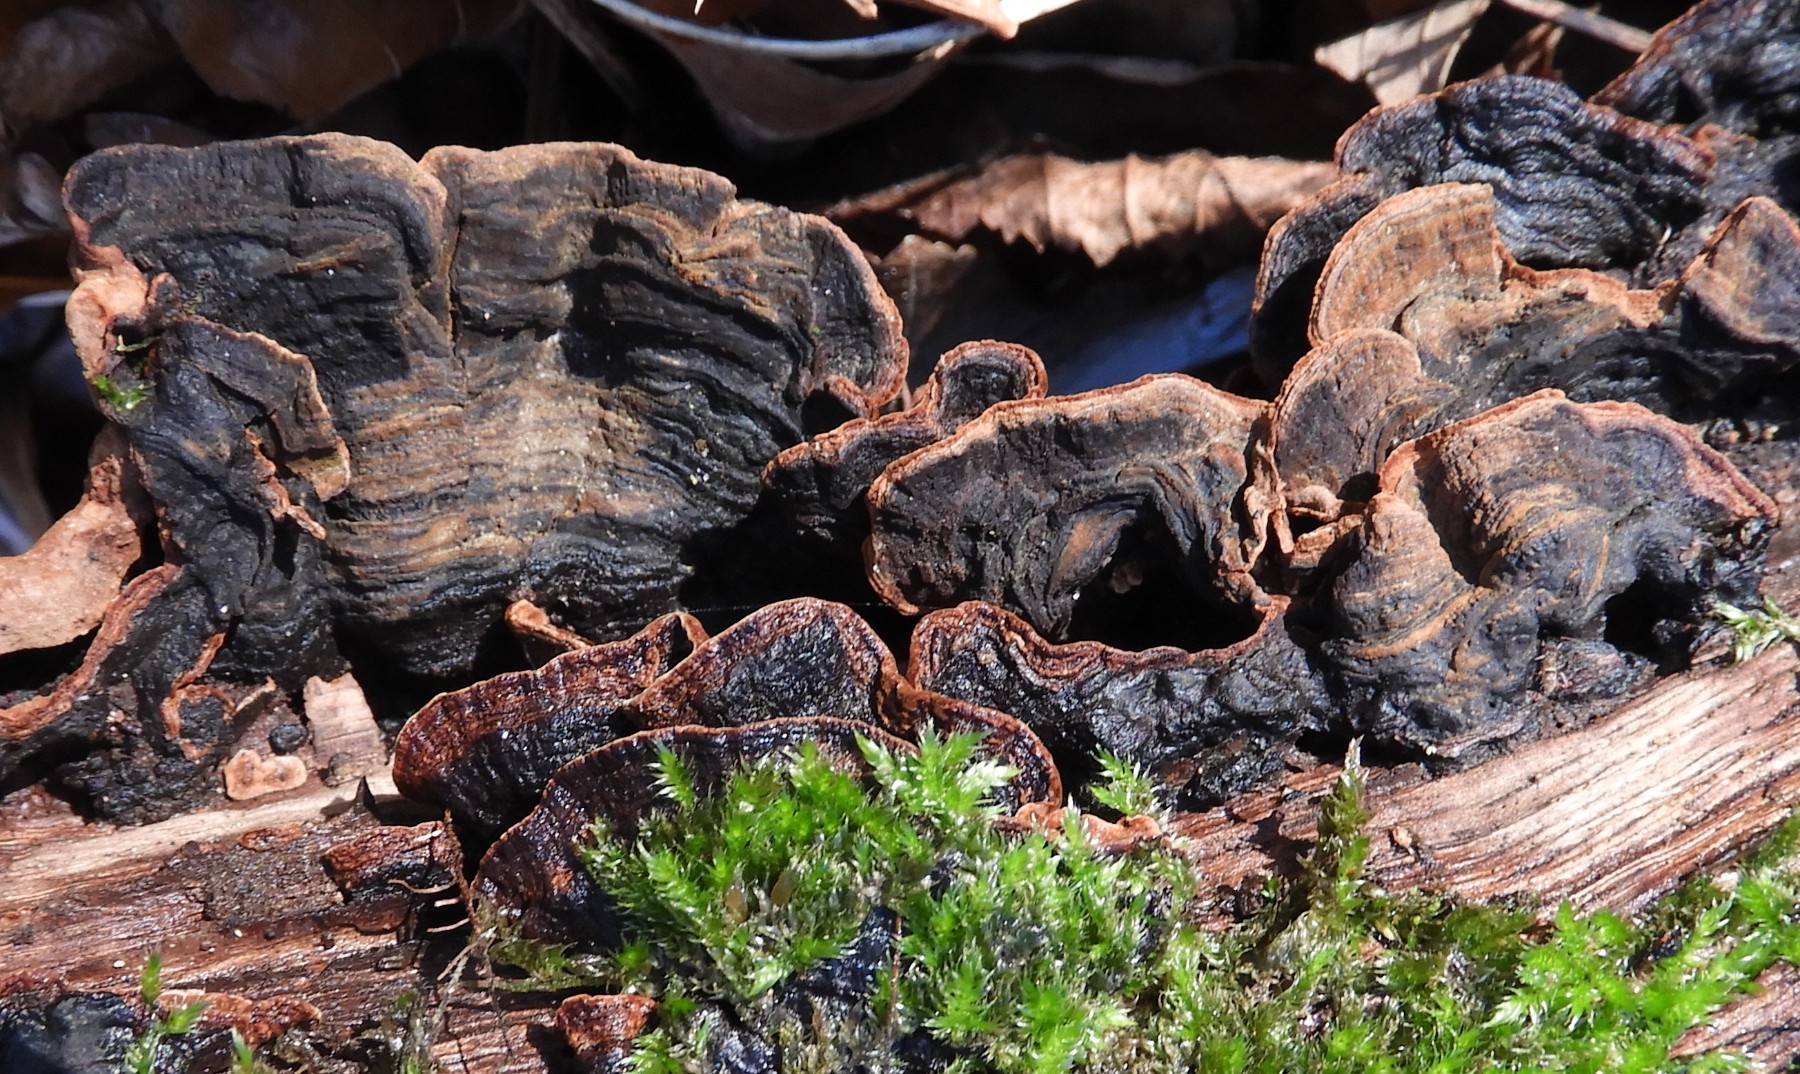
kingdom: Fungi
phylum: Basidiomycota
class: Agaricomycetes
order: Hymenochaetales
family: Hymenochaetaceae
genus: Hymenochaete
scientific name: Hymenochaete rubiginosa
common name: stiv ruslædersvamp
